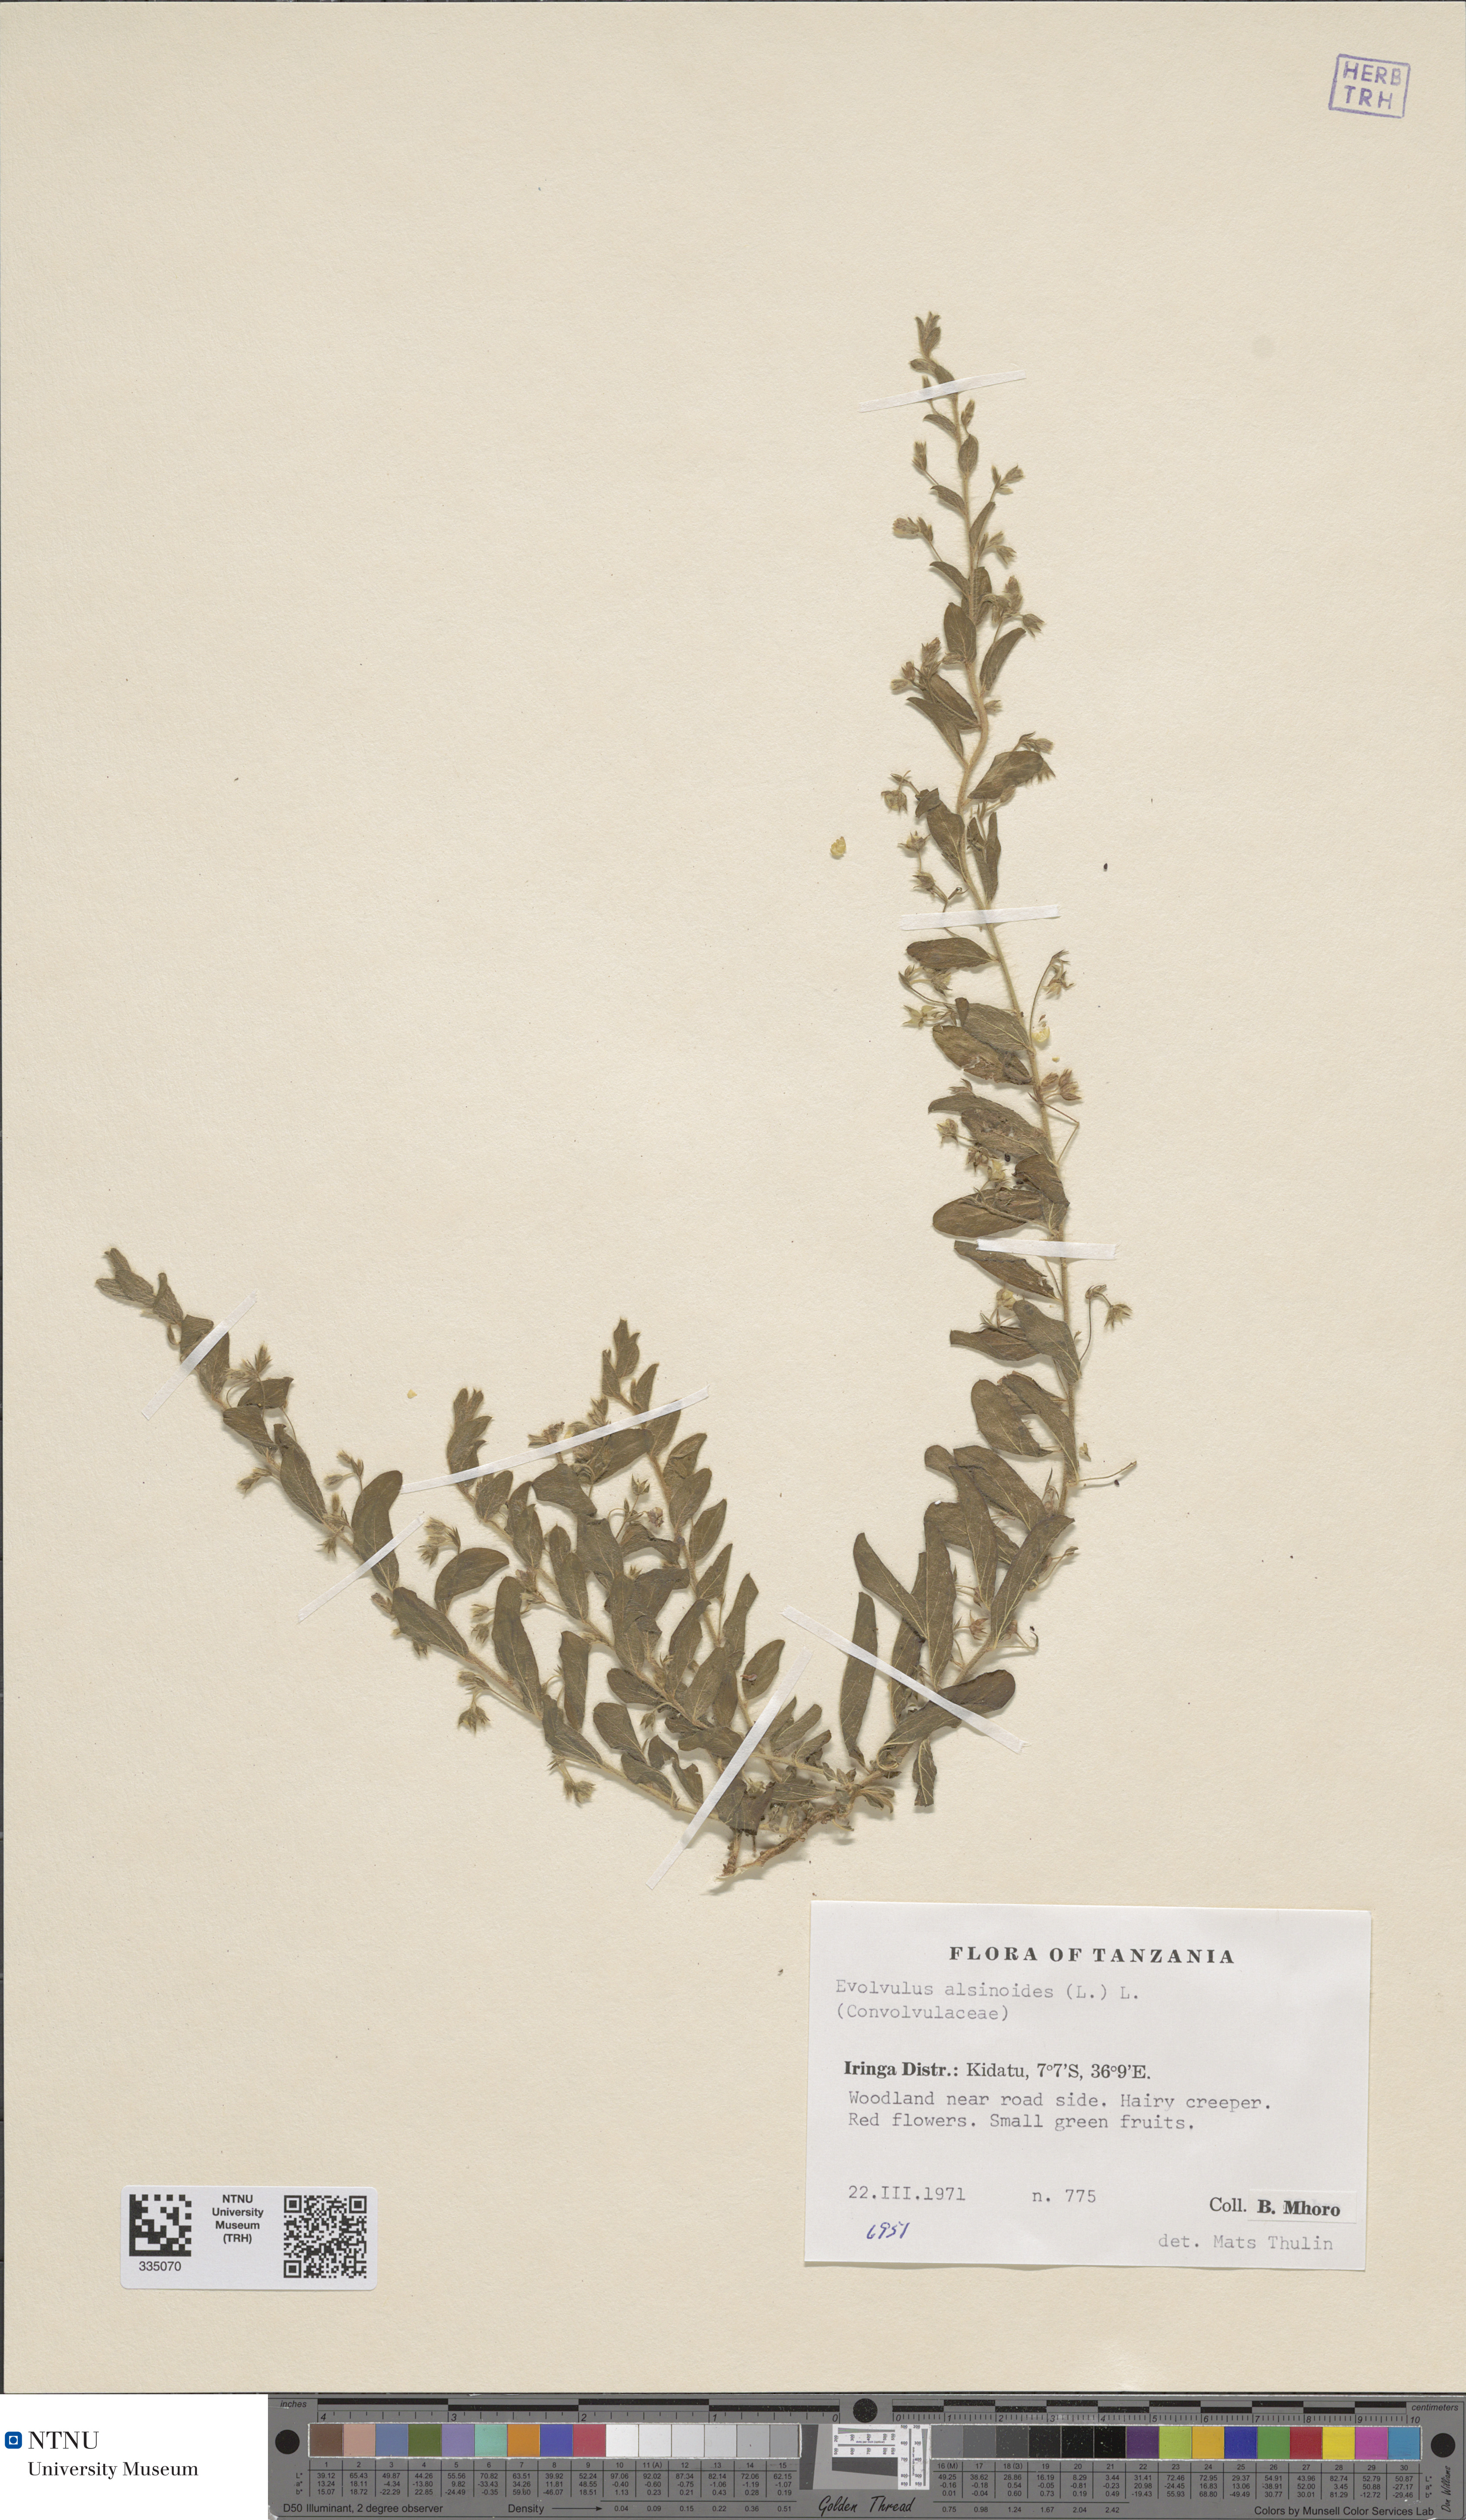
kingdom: Plantae
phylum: Tracheophyta
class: Magnoliopsida
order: Solanales
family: Convolvulaceae
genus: Evolvulus
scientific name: Evolvulus alsinoides
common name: Slender dwarf morning-glory
